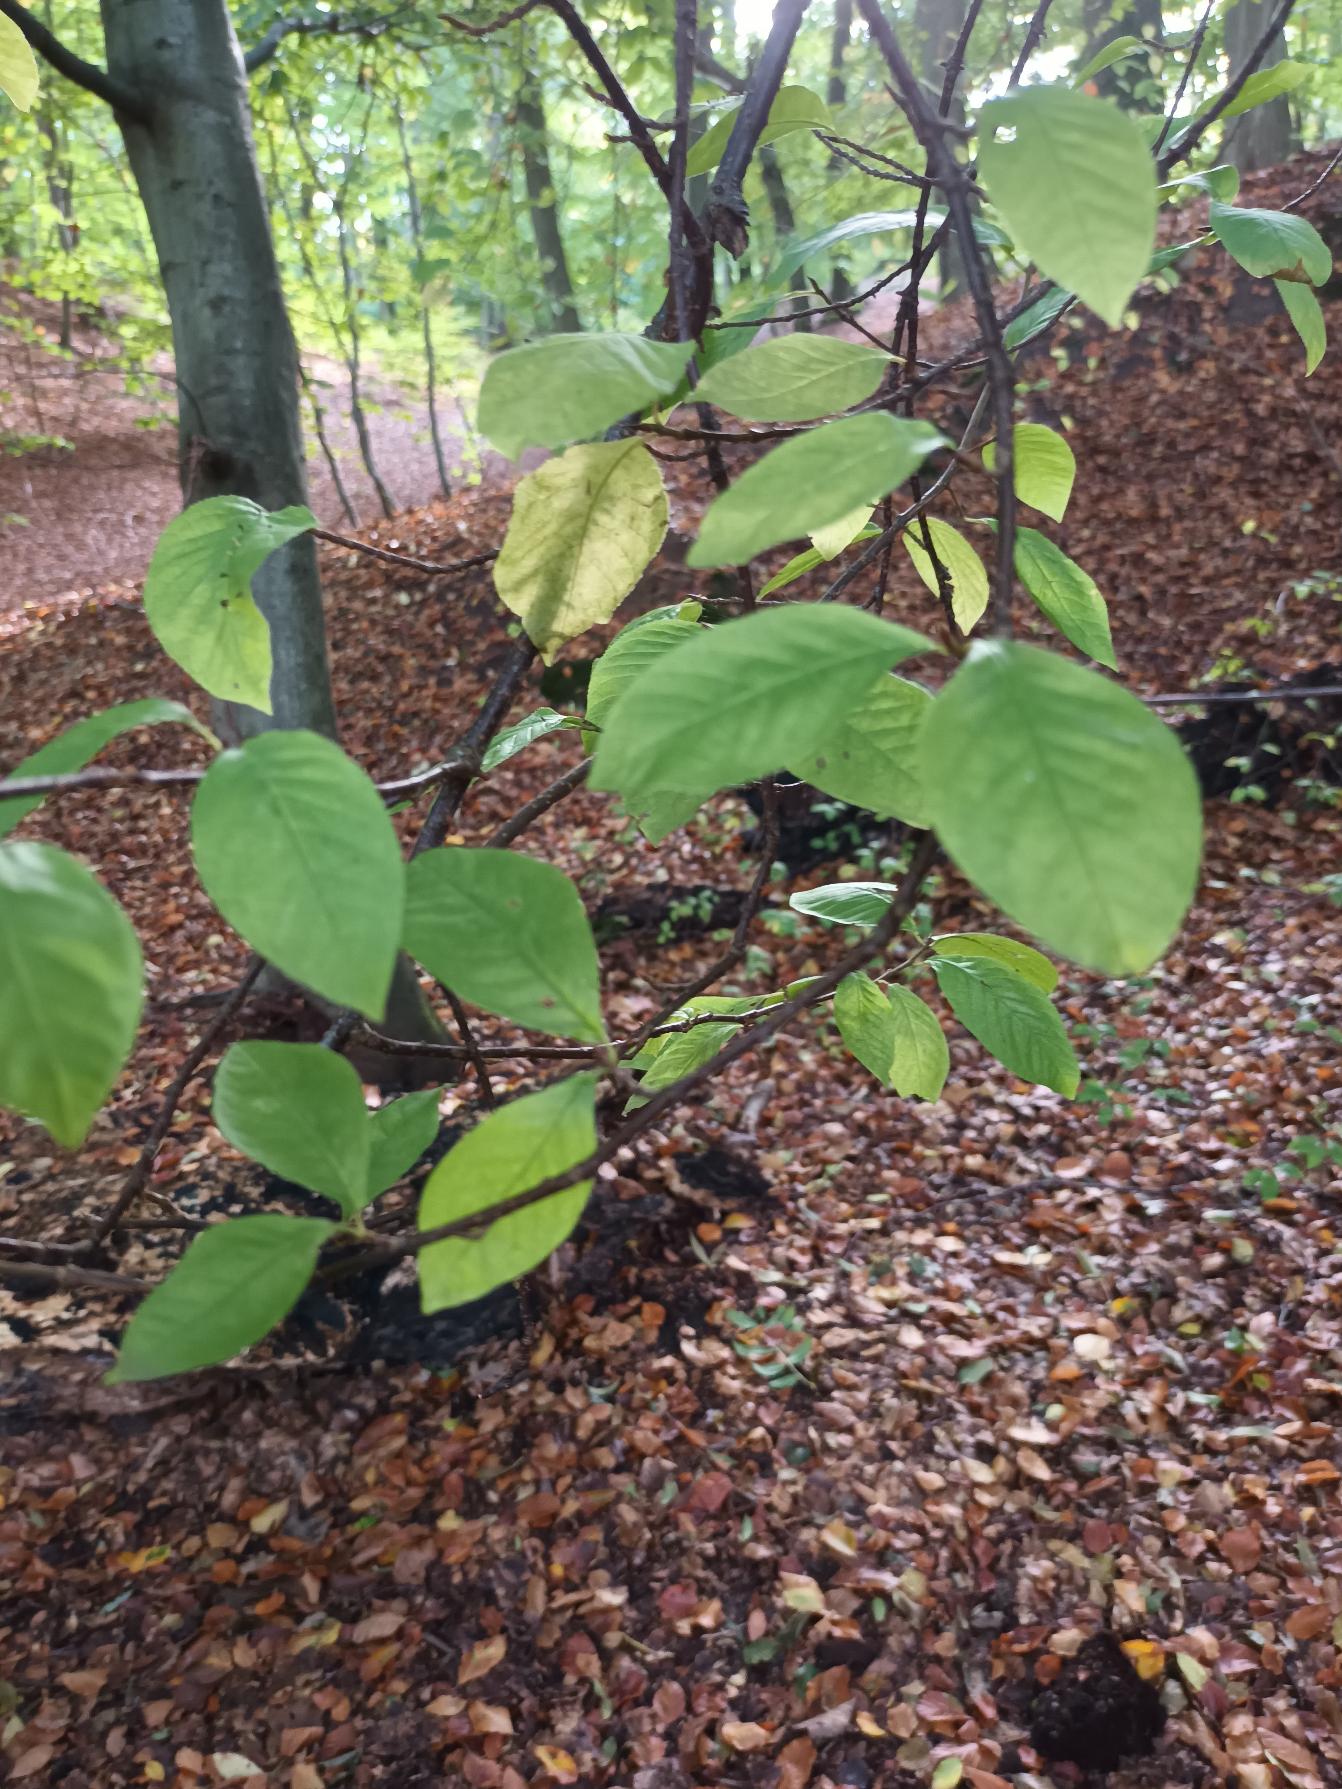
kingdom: Plantae
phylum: Tracheophyta
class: Magnoliopsida
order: Rosales
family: Rosaceae
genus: Prunus
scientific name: Prunus padus
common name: Almindelig hæg
